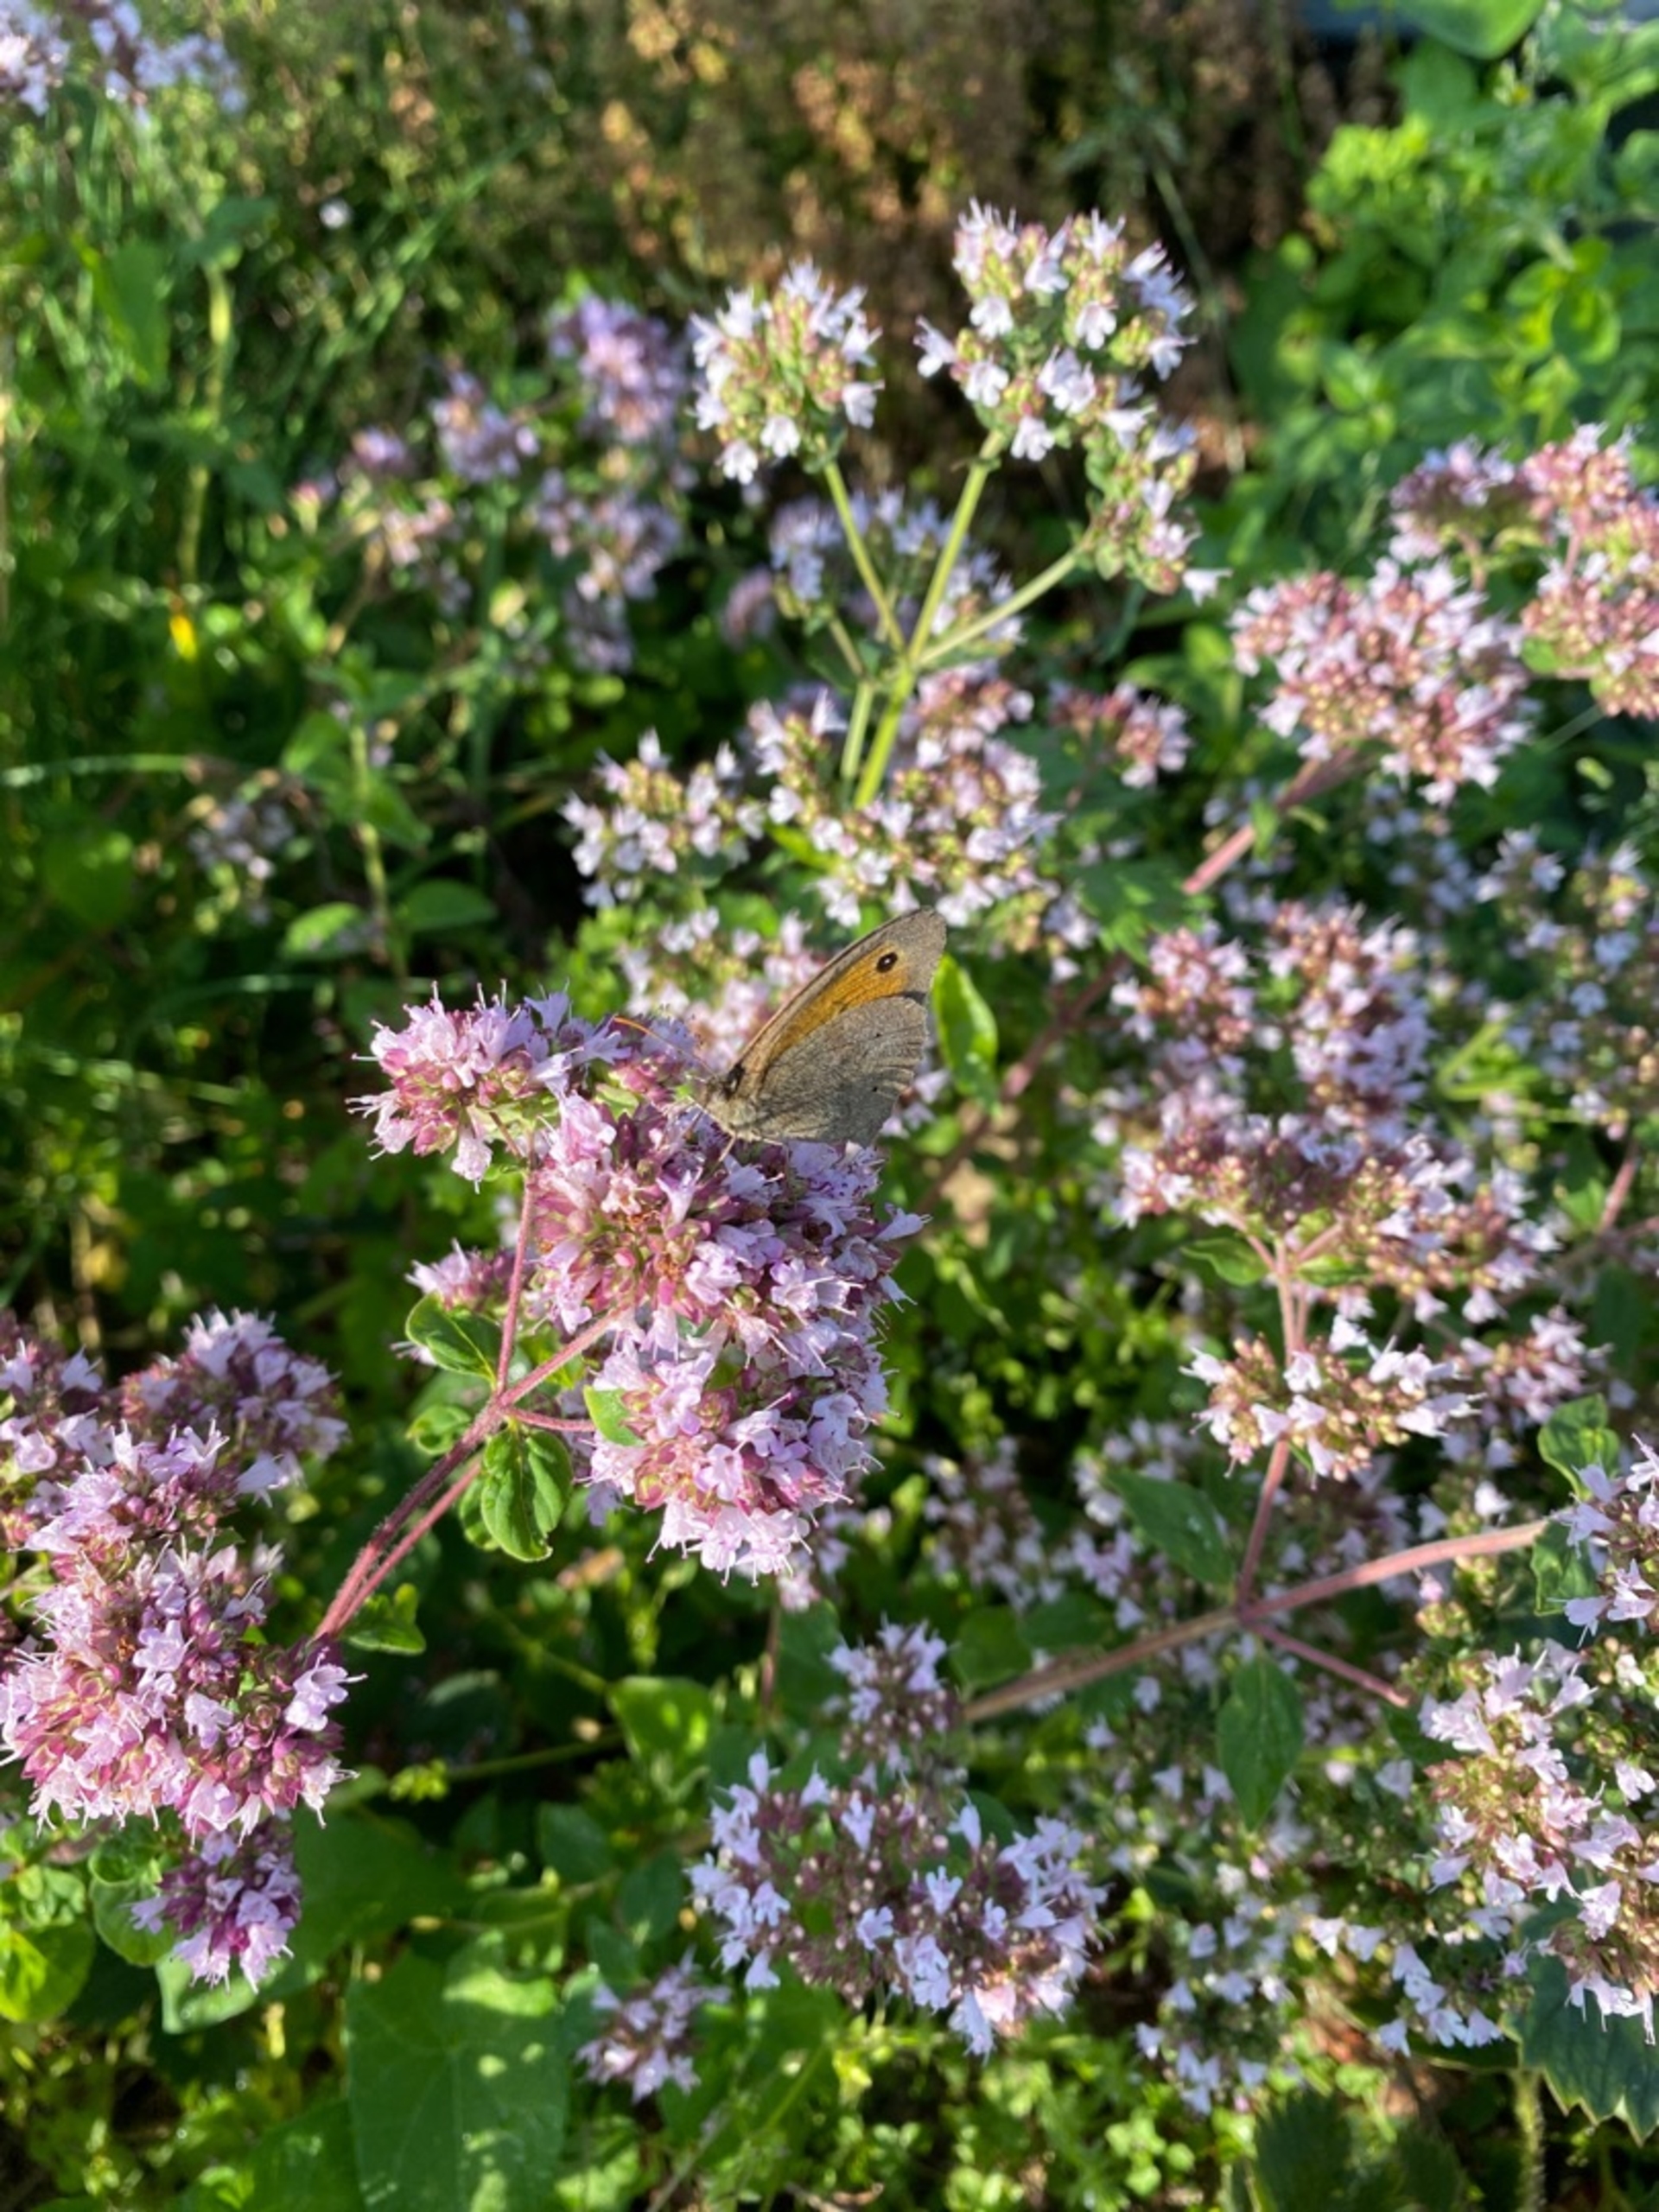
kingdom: Animalia
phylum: Arthropoda
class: Insecta
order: Lepidoptera
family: Nymphalidae
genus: Maniola
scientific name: Maniola jurtina
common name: Græsrandøje
